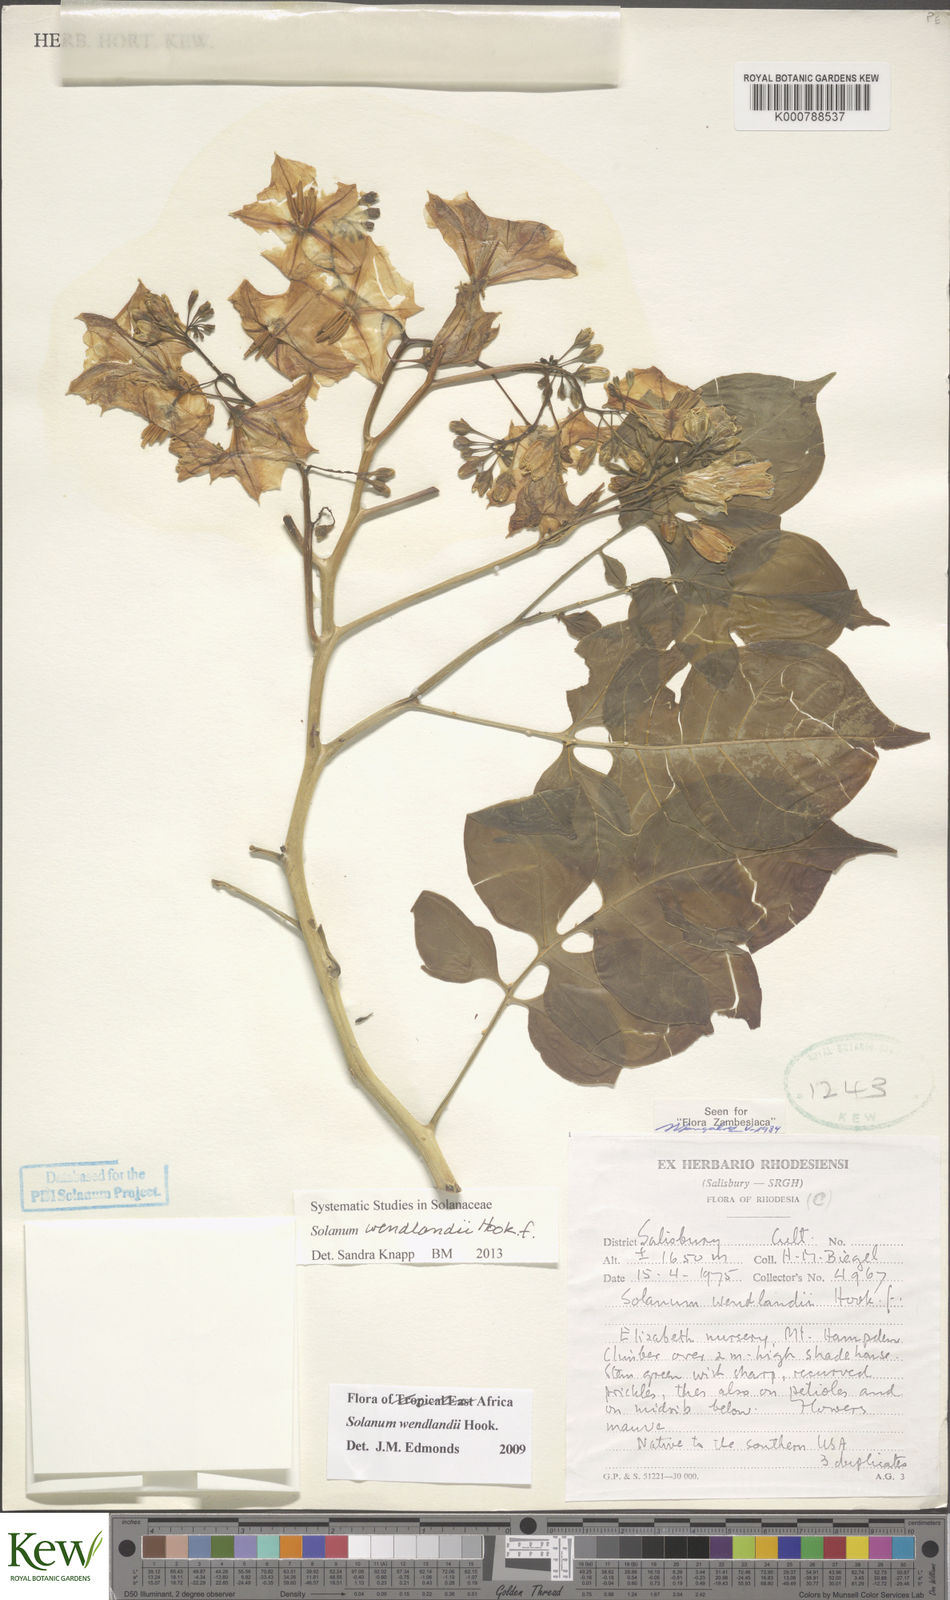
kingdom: Plantae
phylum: Tracheophyta
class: Magnoliopsida
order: Solanales
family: Solanaceae
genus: Solanum
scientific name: Solanum wendlandii
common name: Costa rican nightshade
